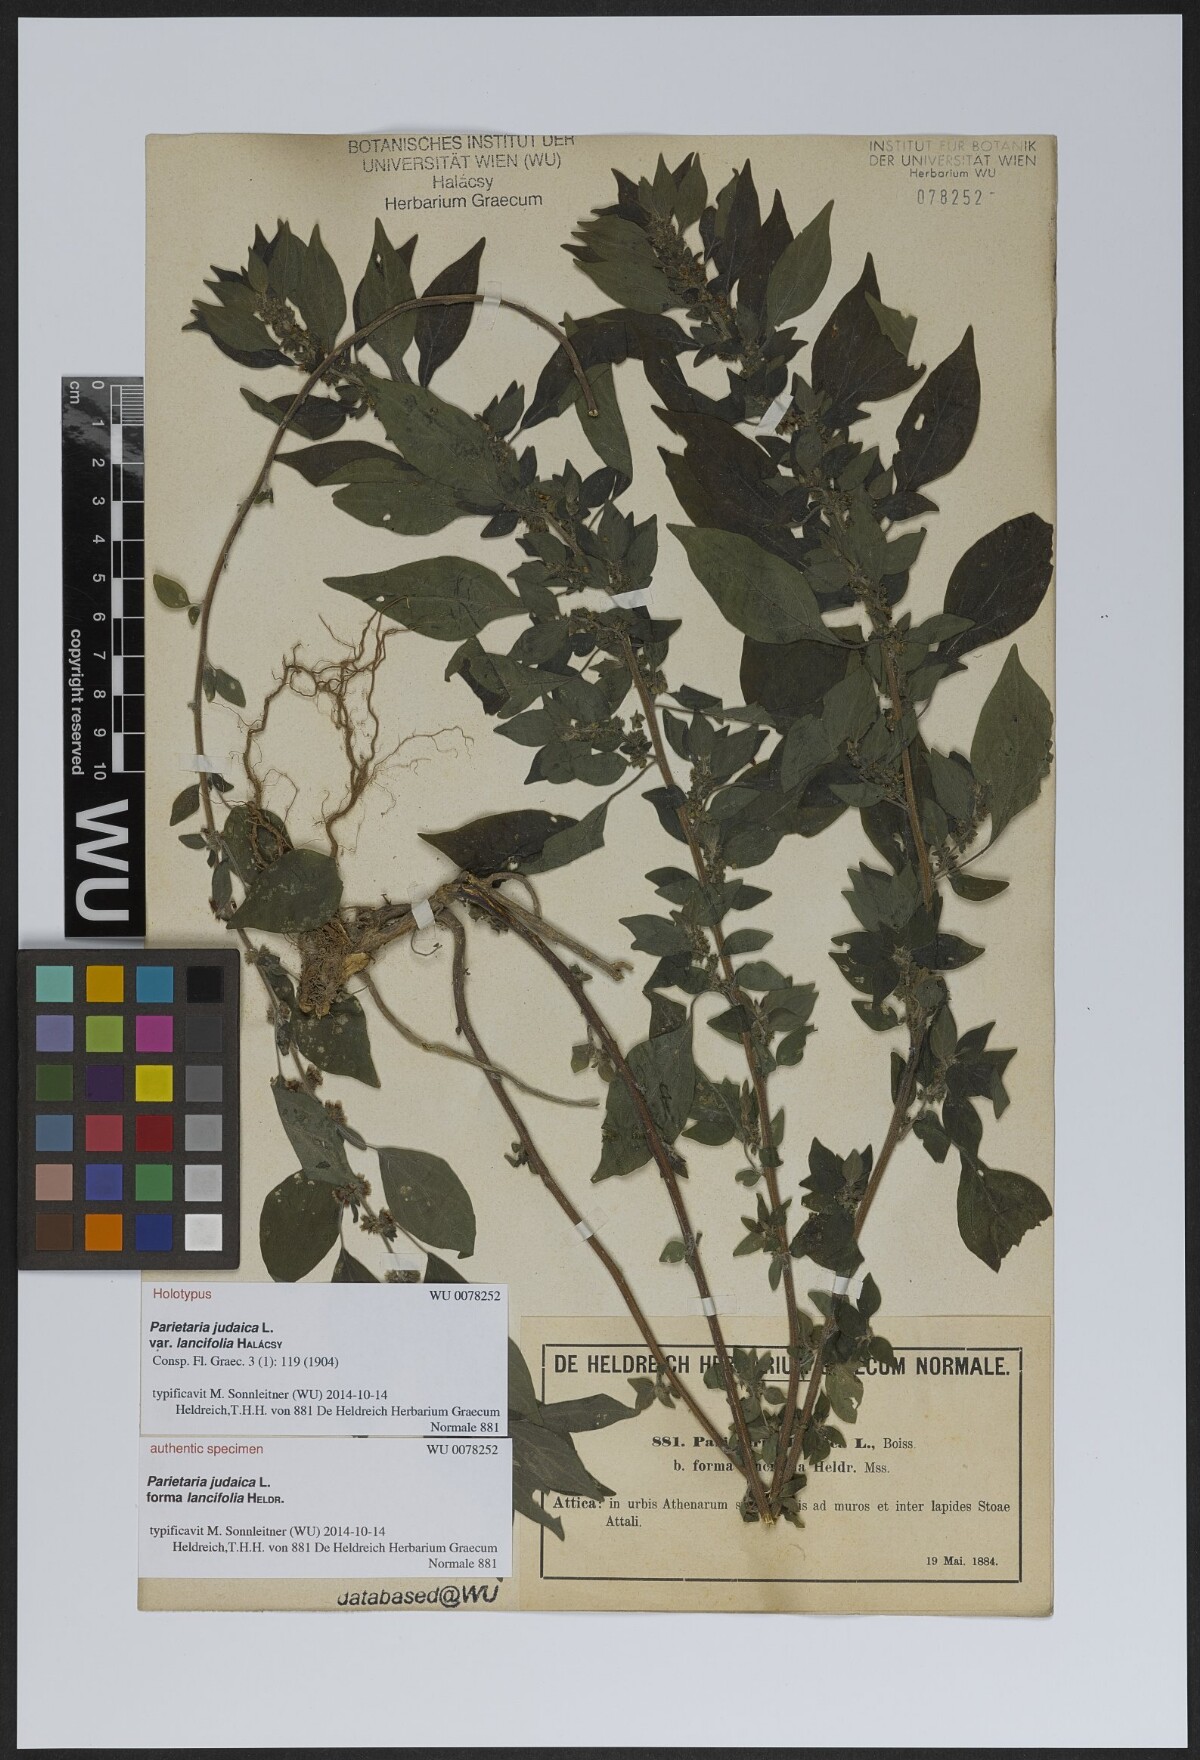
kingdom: Plantae
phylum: Tracheophyta
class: Magnoliopsida
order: Rosales
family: Urticaceae
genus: Parietaria
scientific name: Parietaria judaica
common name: Pellitory-of-the-wall
